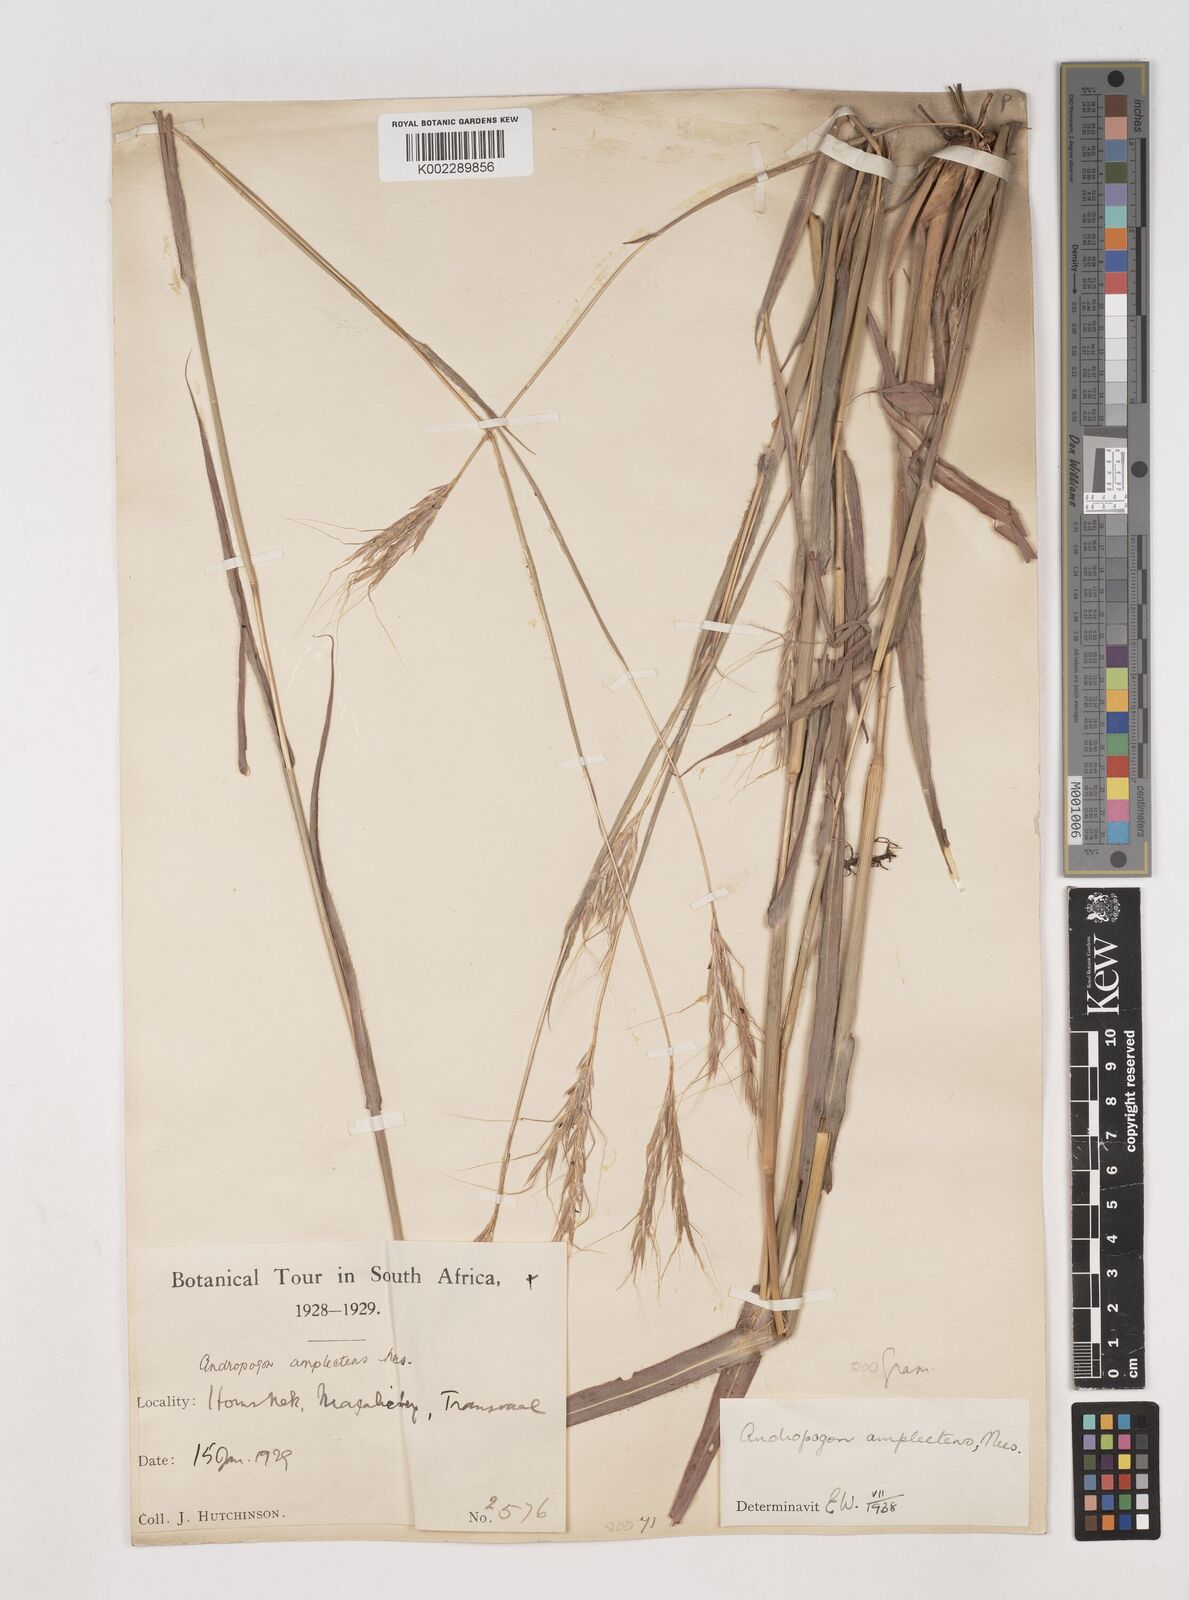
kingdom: Plantae
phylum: Tracheophyta
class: Liliopsida
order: Poales
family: Poaceae
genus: Diheteropogon
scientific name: Diheteropogon amplectens
